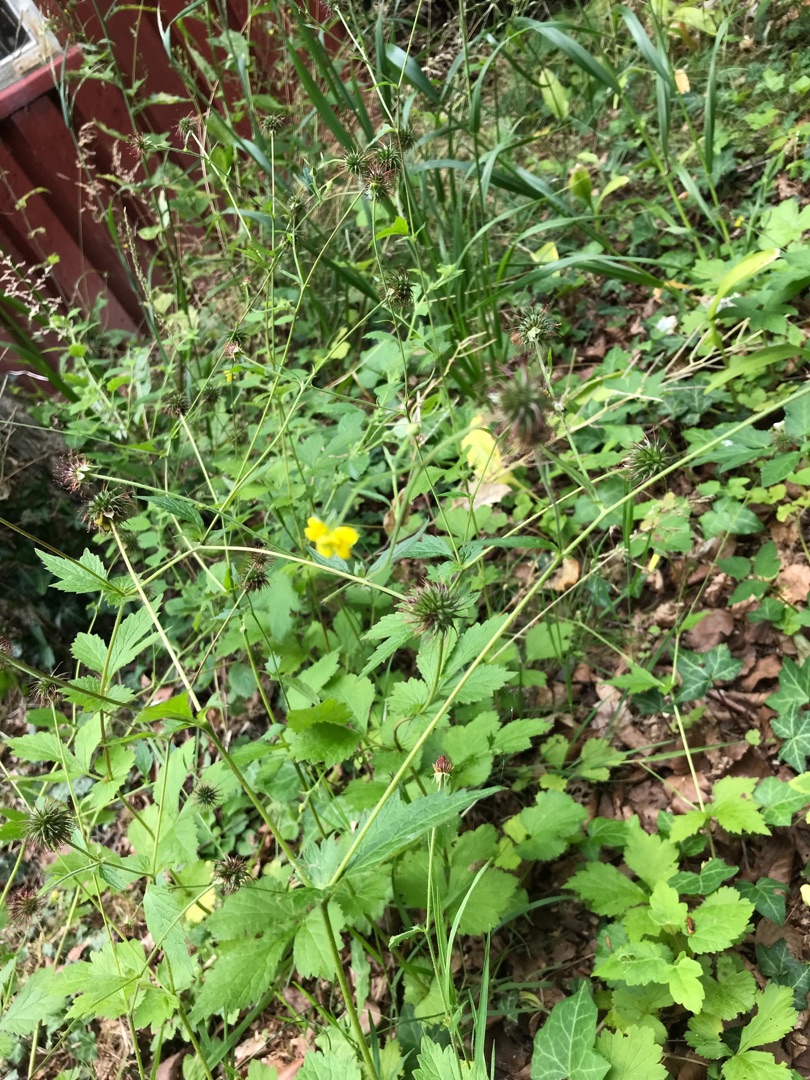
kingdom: Plantae
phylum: Tracheophyta
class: Magnoliopsida
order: Rosales
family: Rosaceae
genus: Geum
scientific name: Geum urbanum
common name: Feber-nellikerod
